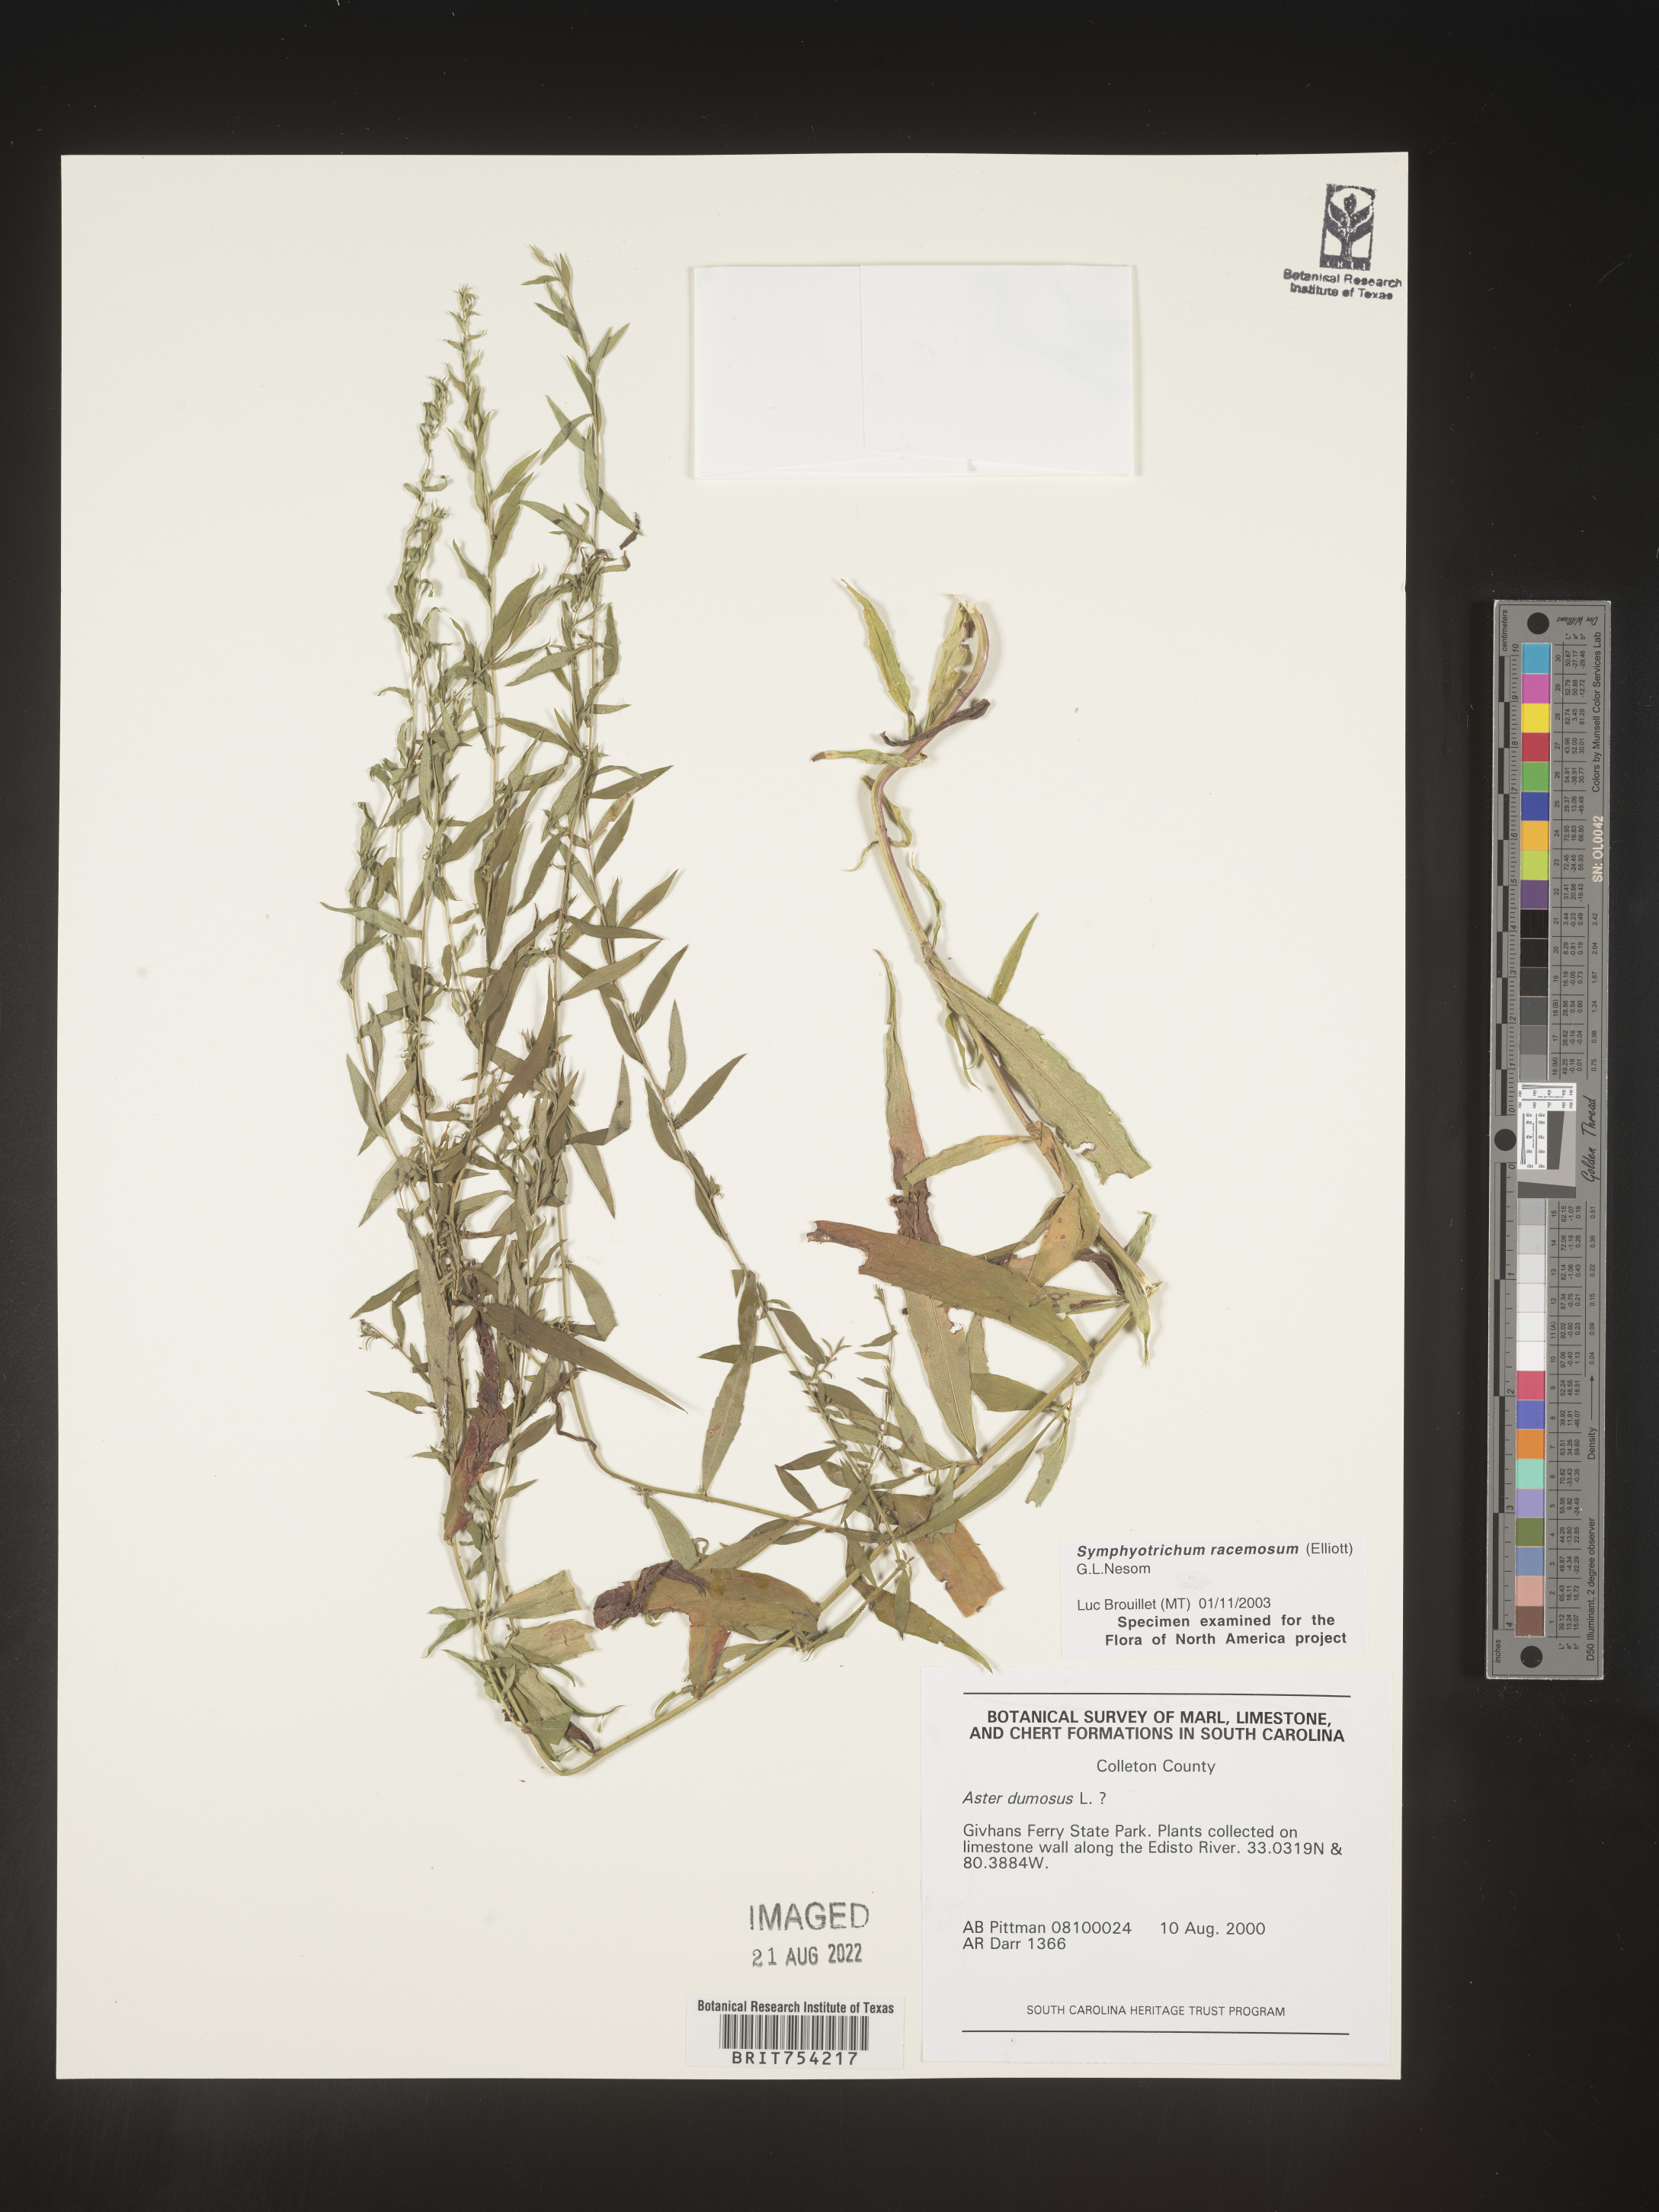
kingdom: Plantae
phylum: Tracheophyta
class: Magnoliopsida
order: Asterales
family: Asteraceae
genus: Symphyotrichum
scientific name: Symphyotrichum racemosum
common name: Small white aster
